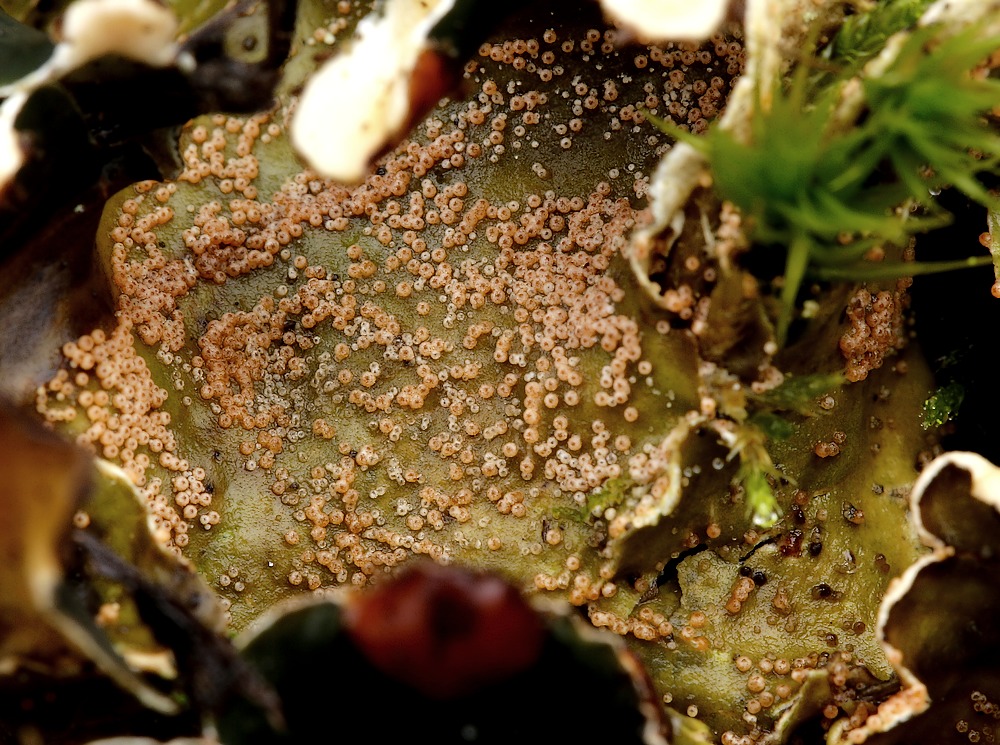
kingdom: Fungi
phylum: Ascomycota
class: Sordariomycetes
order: Hypocreales
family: Bionectriaceae
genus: Nectriopsis
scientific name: Nectriopsis lecanodes
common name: skjoldlav-gyldenkerne
